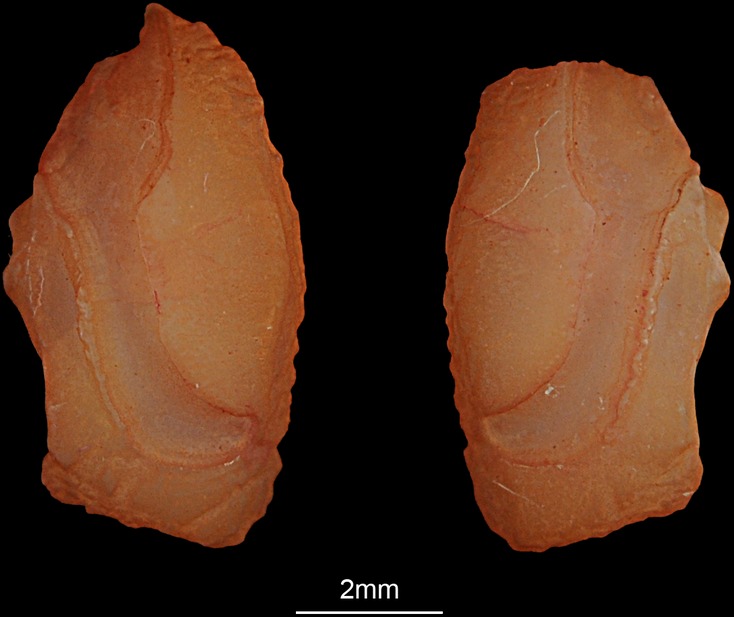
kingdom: Animalia
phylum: Chordata
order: Perciformes
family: Sparidae
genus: Rhabdosargus
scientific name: Rhabdosargus sarba
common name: Goldlined seabream
